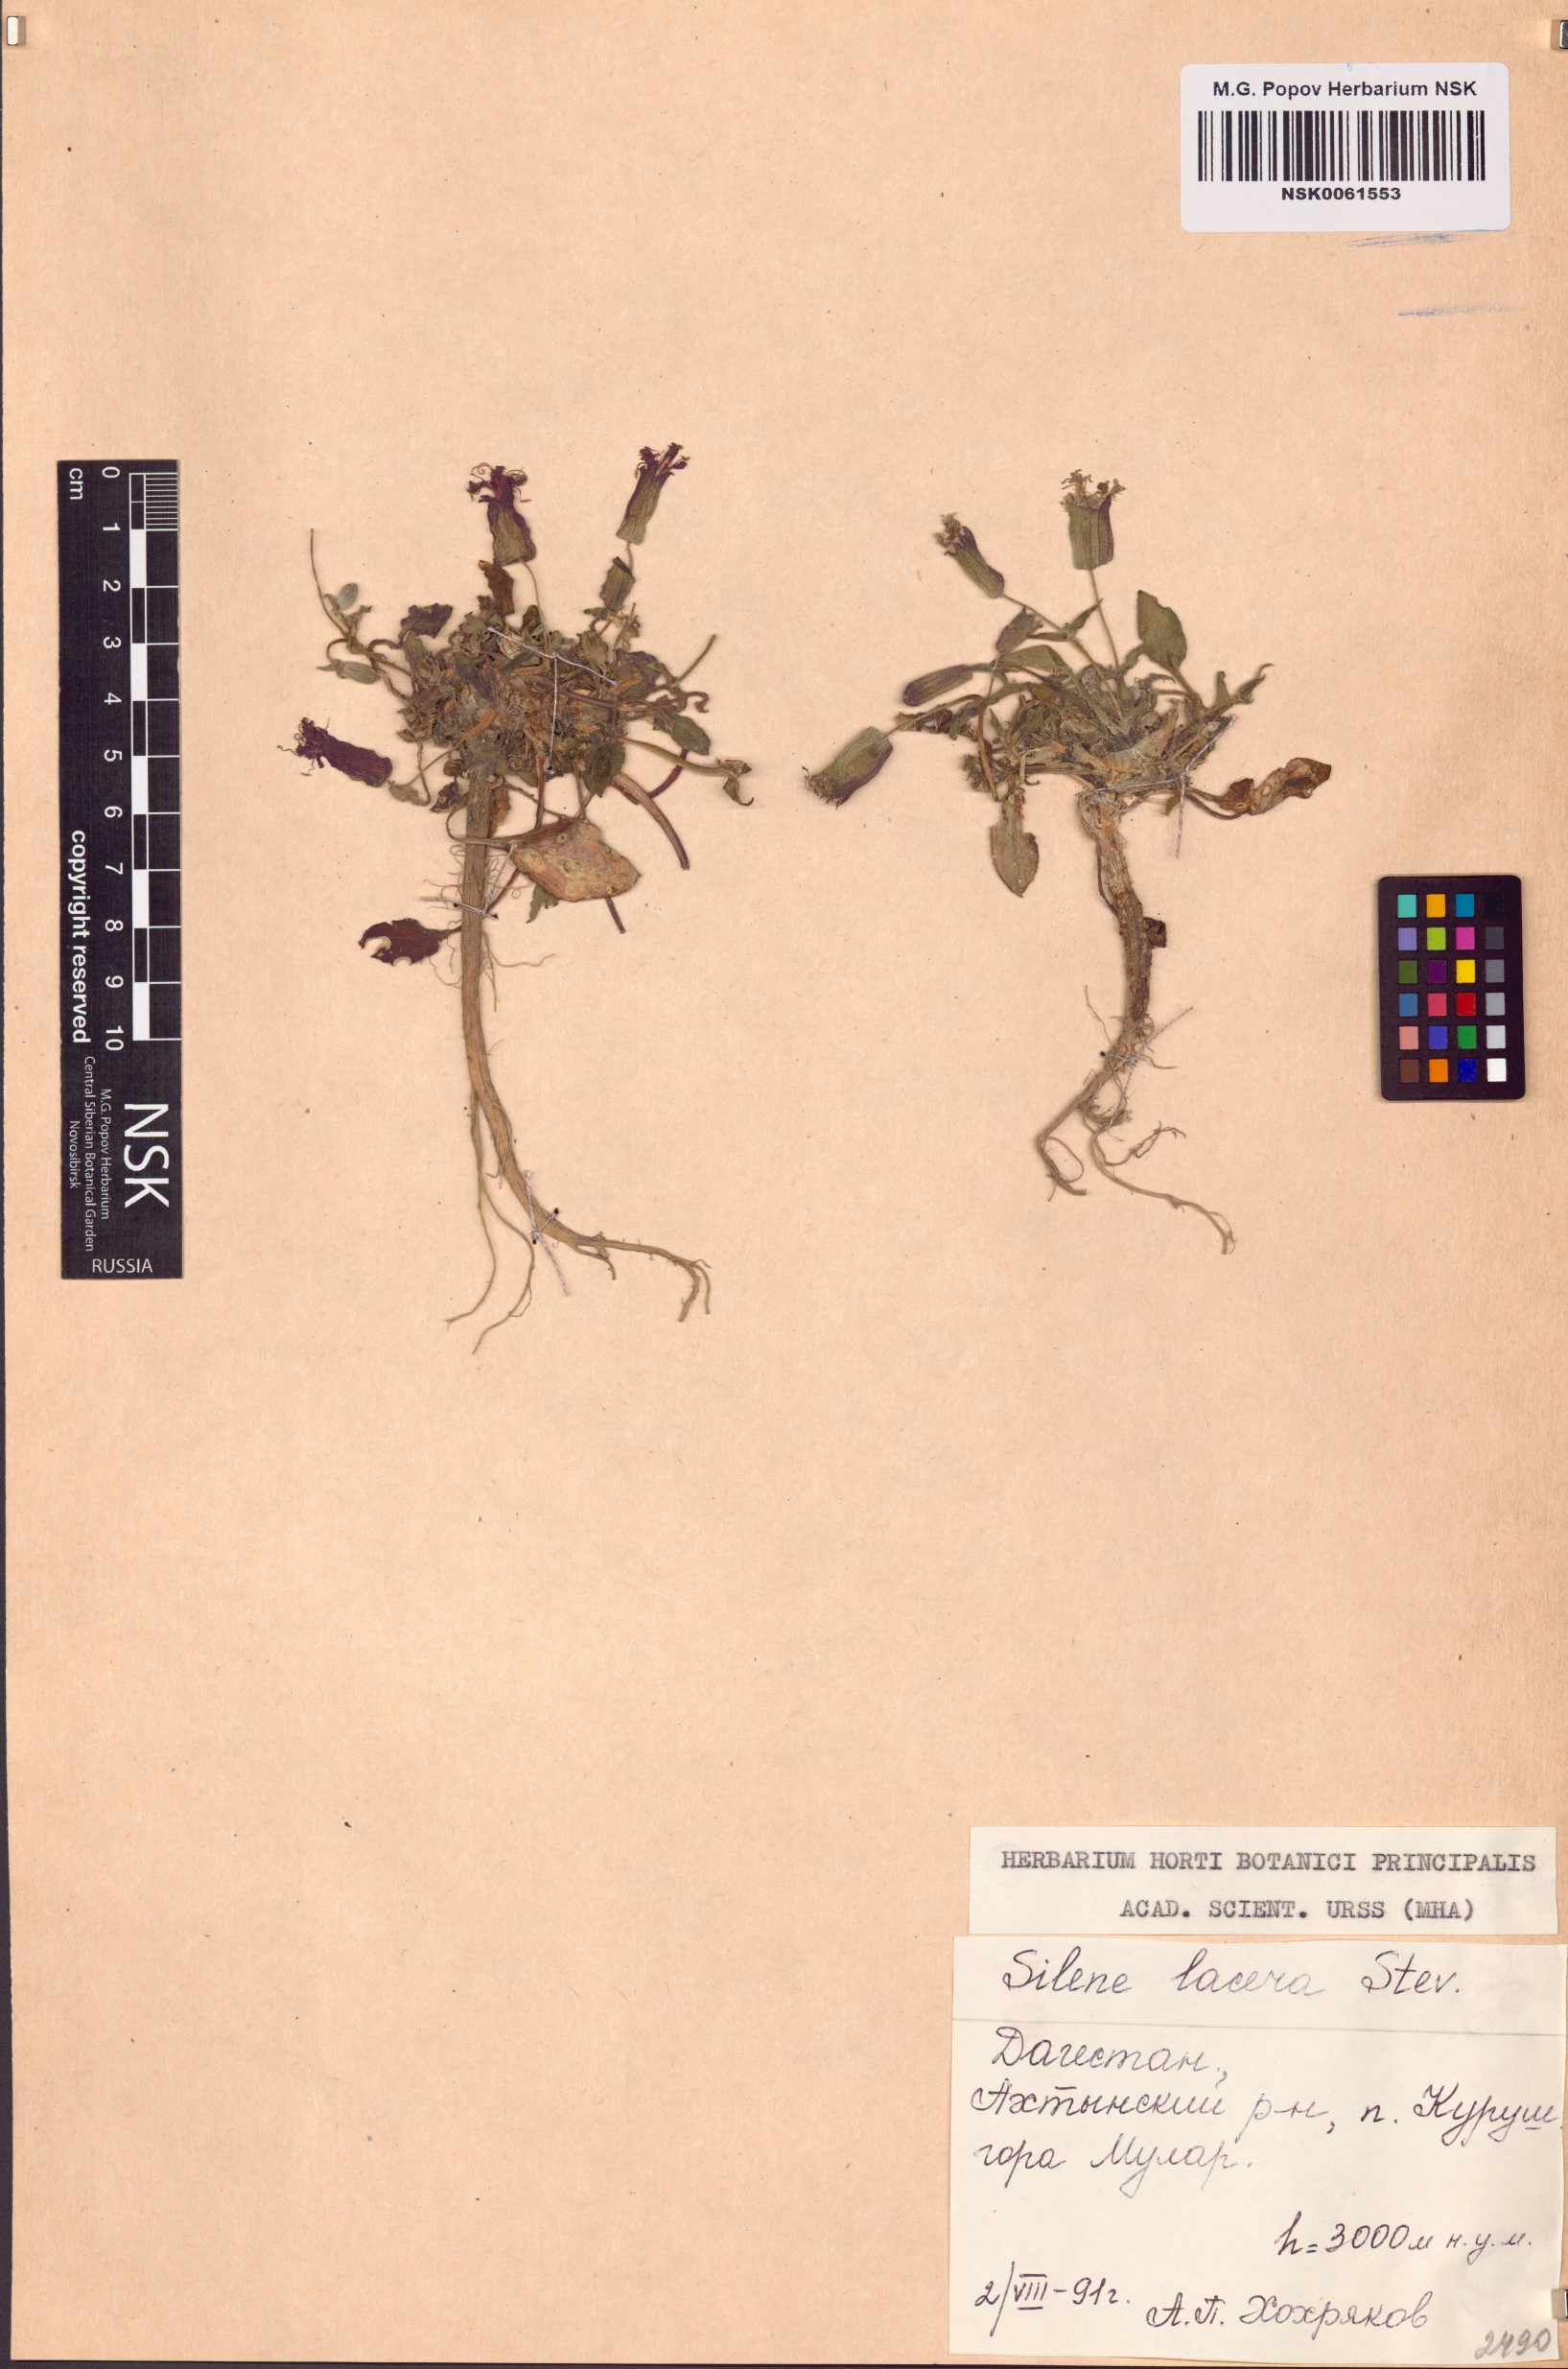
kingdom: Plantae
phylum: Tracheophyta
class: Magnoliopsida
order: Caryophyllales
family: Caryophyllaceae
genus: Silene
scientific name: Silene lacera
